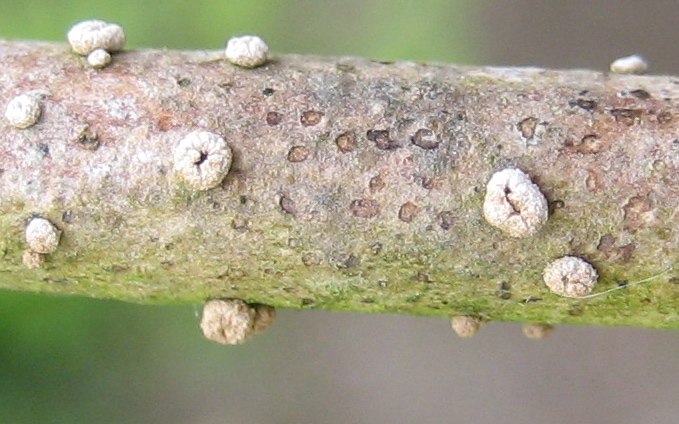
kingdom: Fungi
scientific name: Fungi
